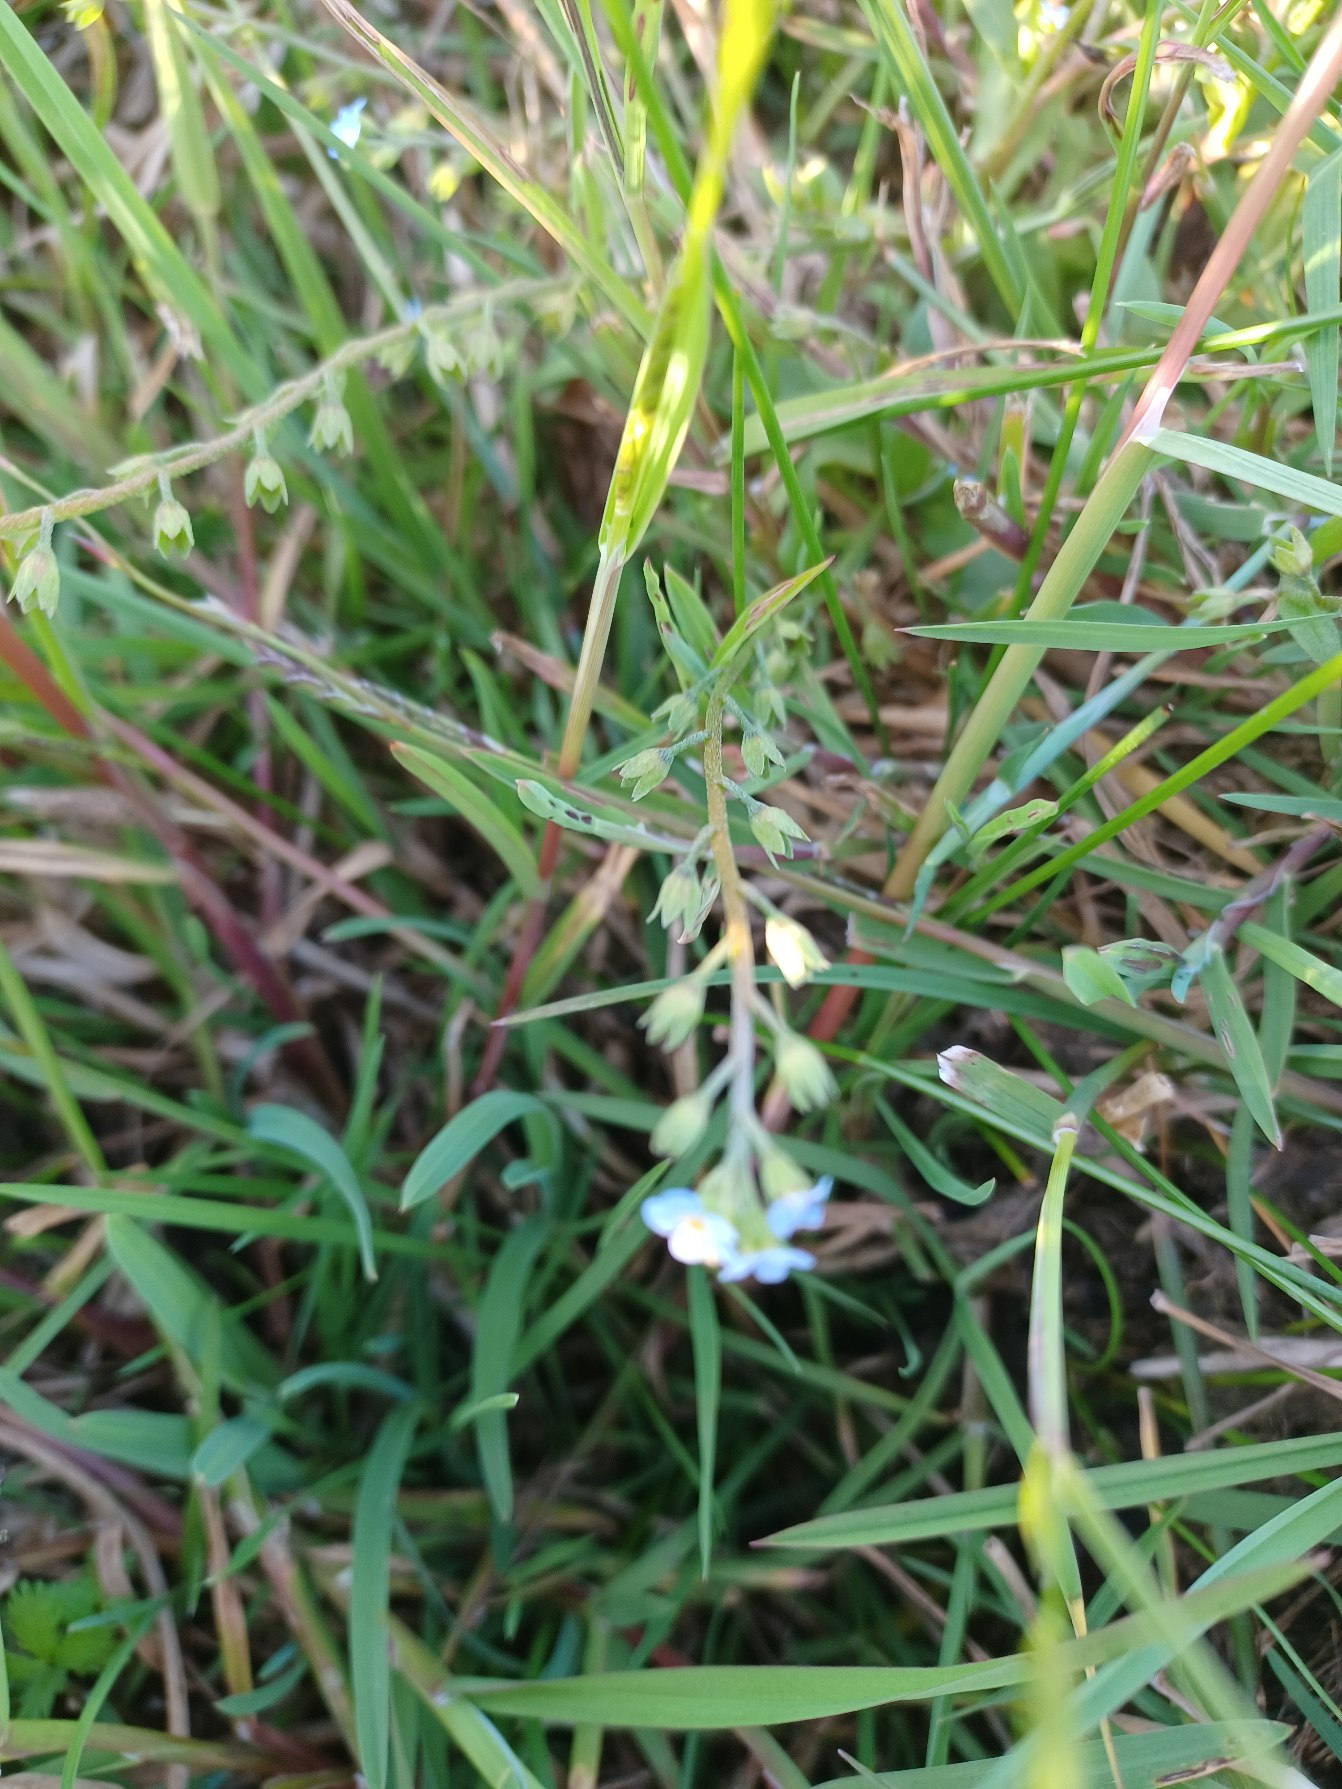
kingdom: Plantae
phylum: Tracheophyta
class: Magnoliopsida
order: Boraginales
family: Boraginaceae
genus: Myosotis
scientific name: Myosotis laxa
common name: Sump-forglemmigej
